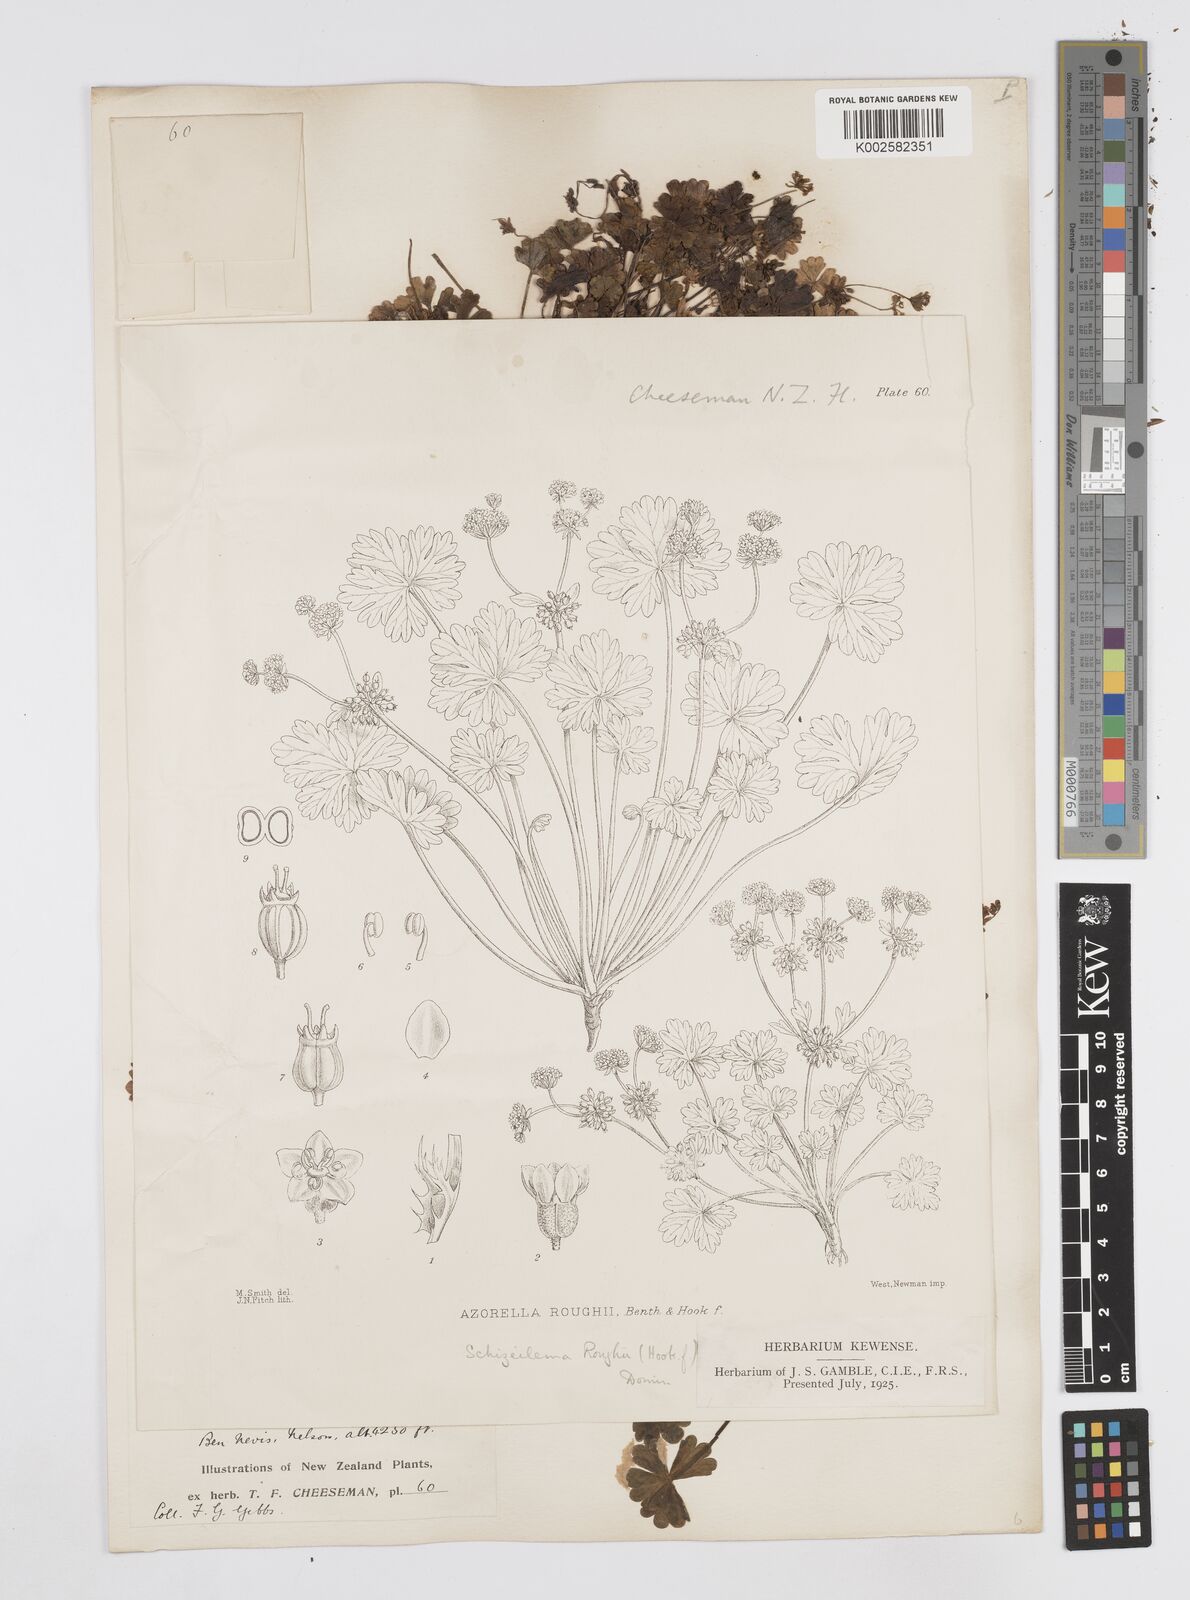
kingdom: Plantae
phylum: Tracheophyta
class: Magnoliopsida
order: Apiales
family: Apiaceae
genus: Azorella
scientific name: Azorella roughii
